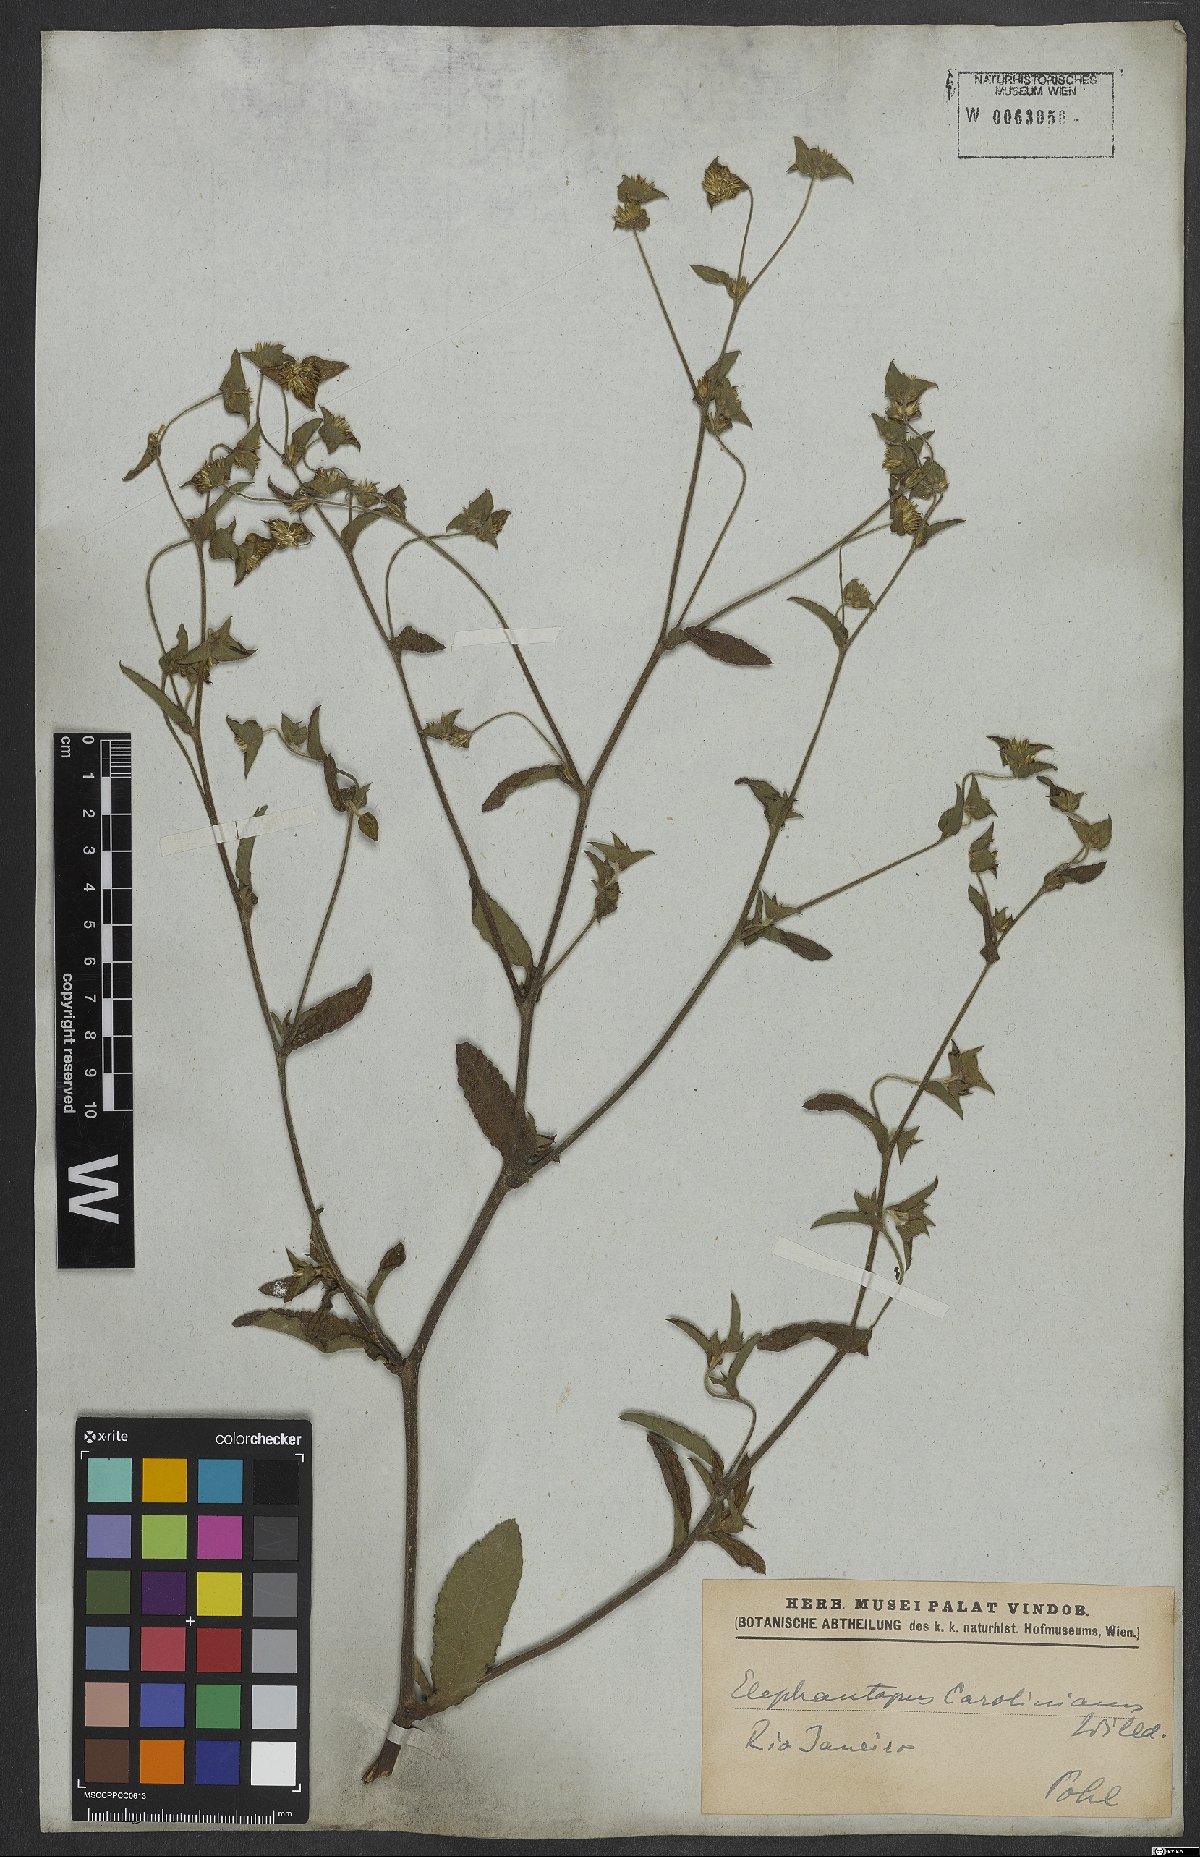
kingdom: Plantae
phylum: Tracheophyta
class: Magnoliopsida
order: Asterales
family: Asteraceae
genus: Elephantopus
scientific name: Elephantopus carolinianus
